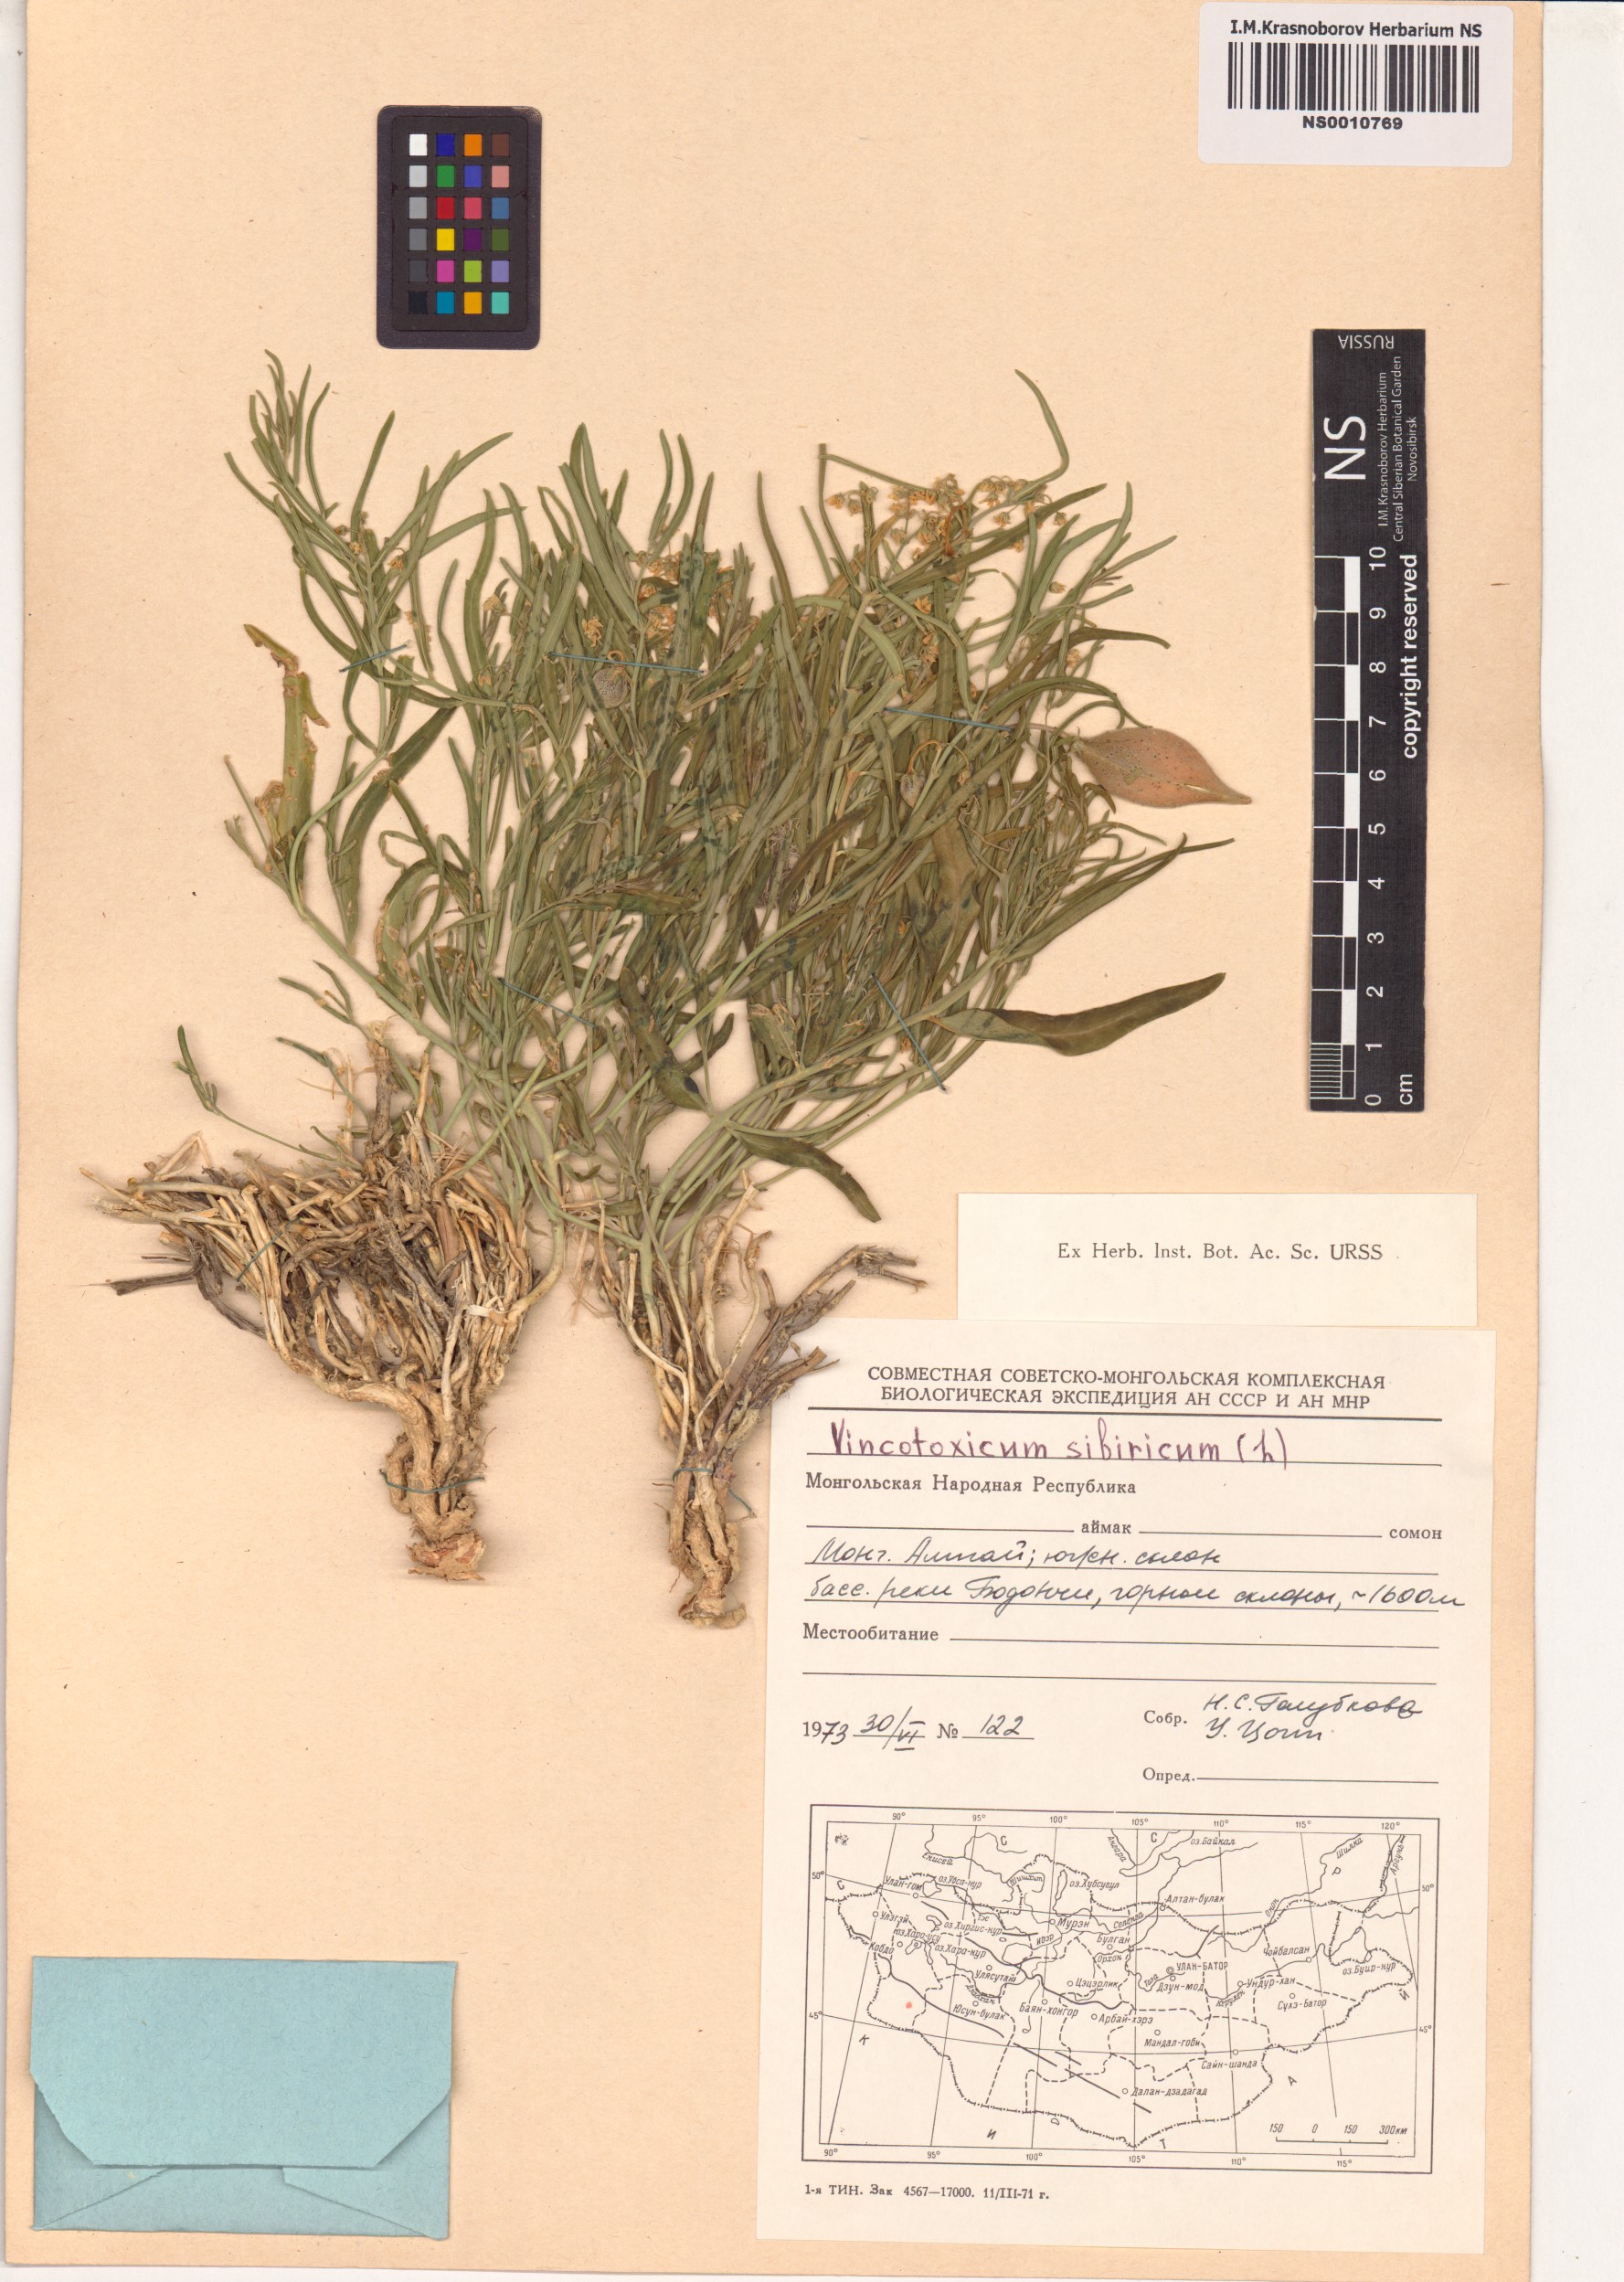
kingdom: Plantae
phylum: Tracheophyta
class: Magnoliopsida
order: Gentianales
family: Apocynaceae
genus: Cynanchum
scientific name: Cynanchum thesioides
